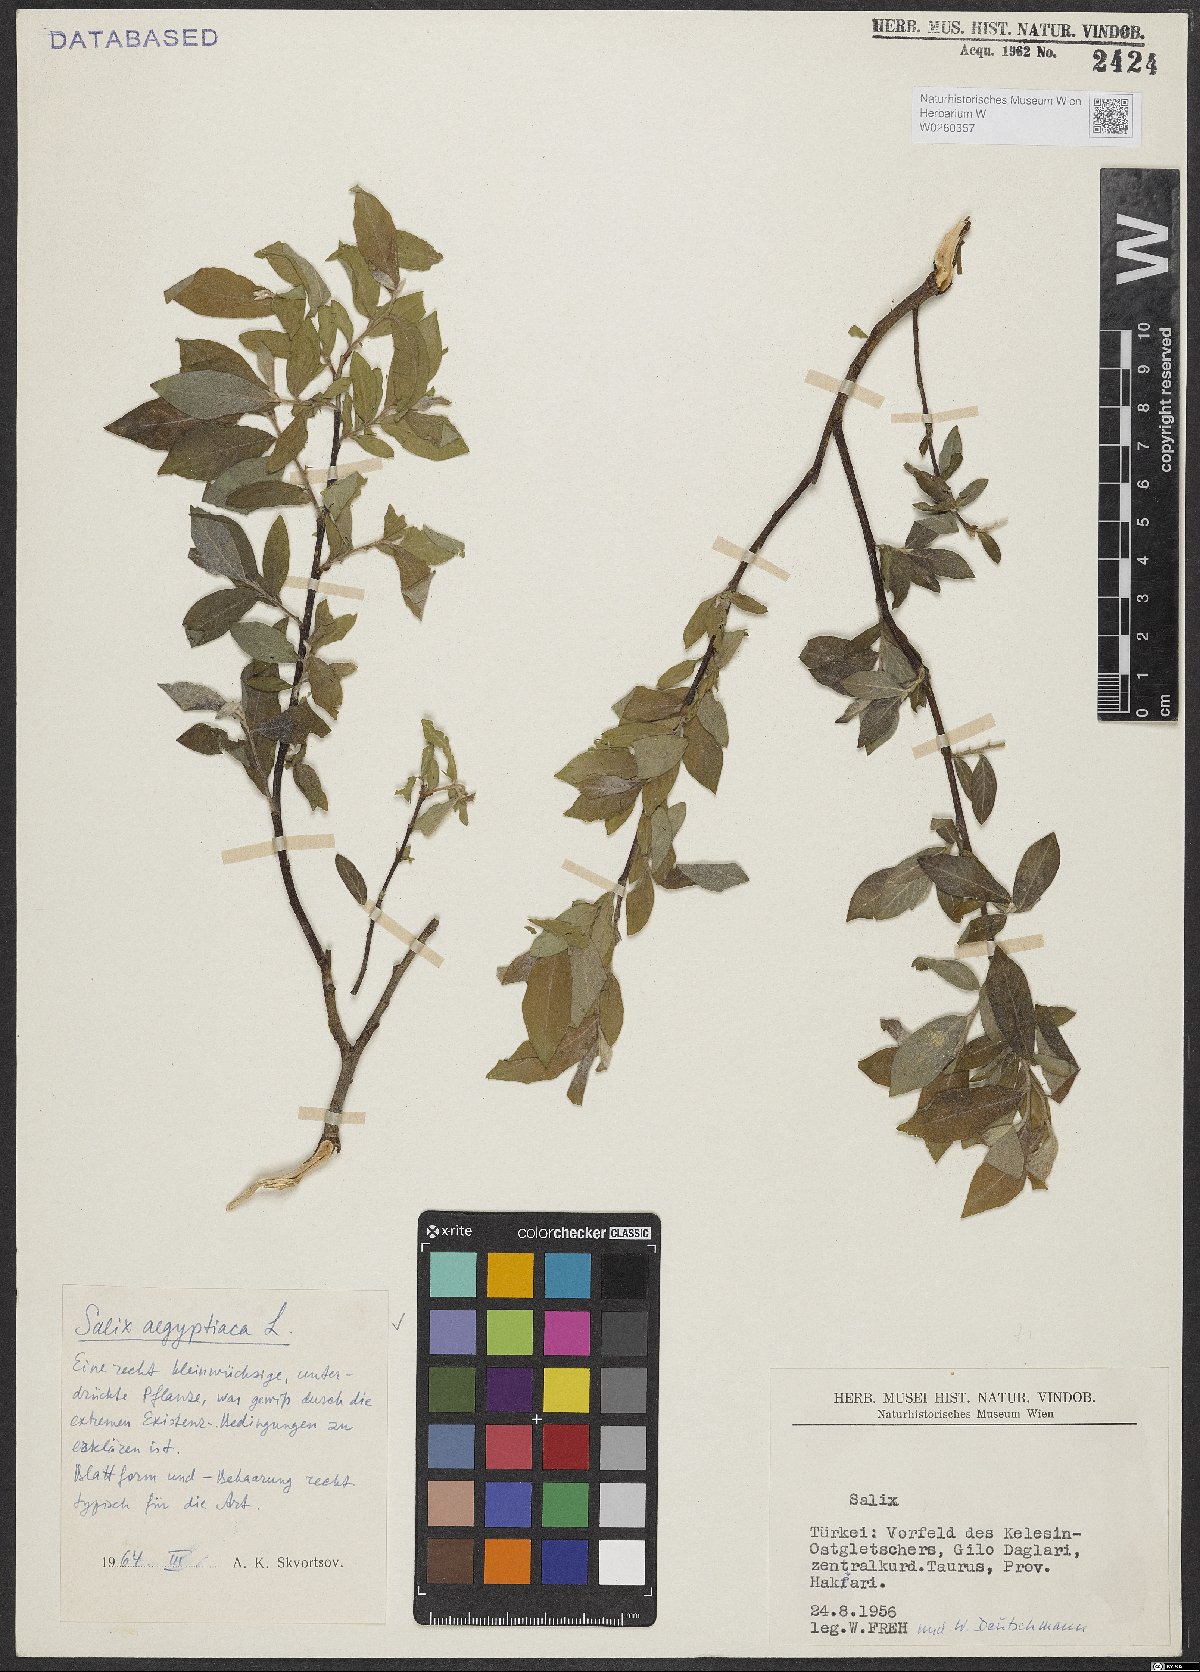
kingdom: Plantae
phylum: Tracheophyta
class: Magnoliopsida
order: Malpighiales
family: Salicaceae
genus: Salix
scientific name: Salix aegyptiaca
